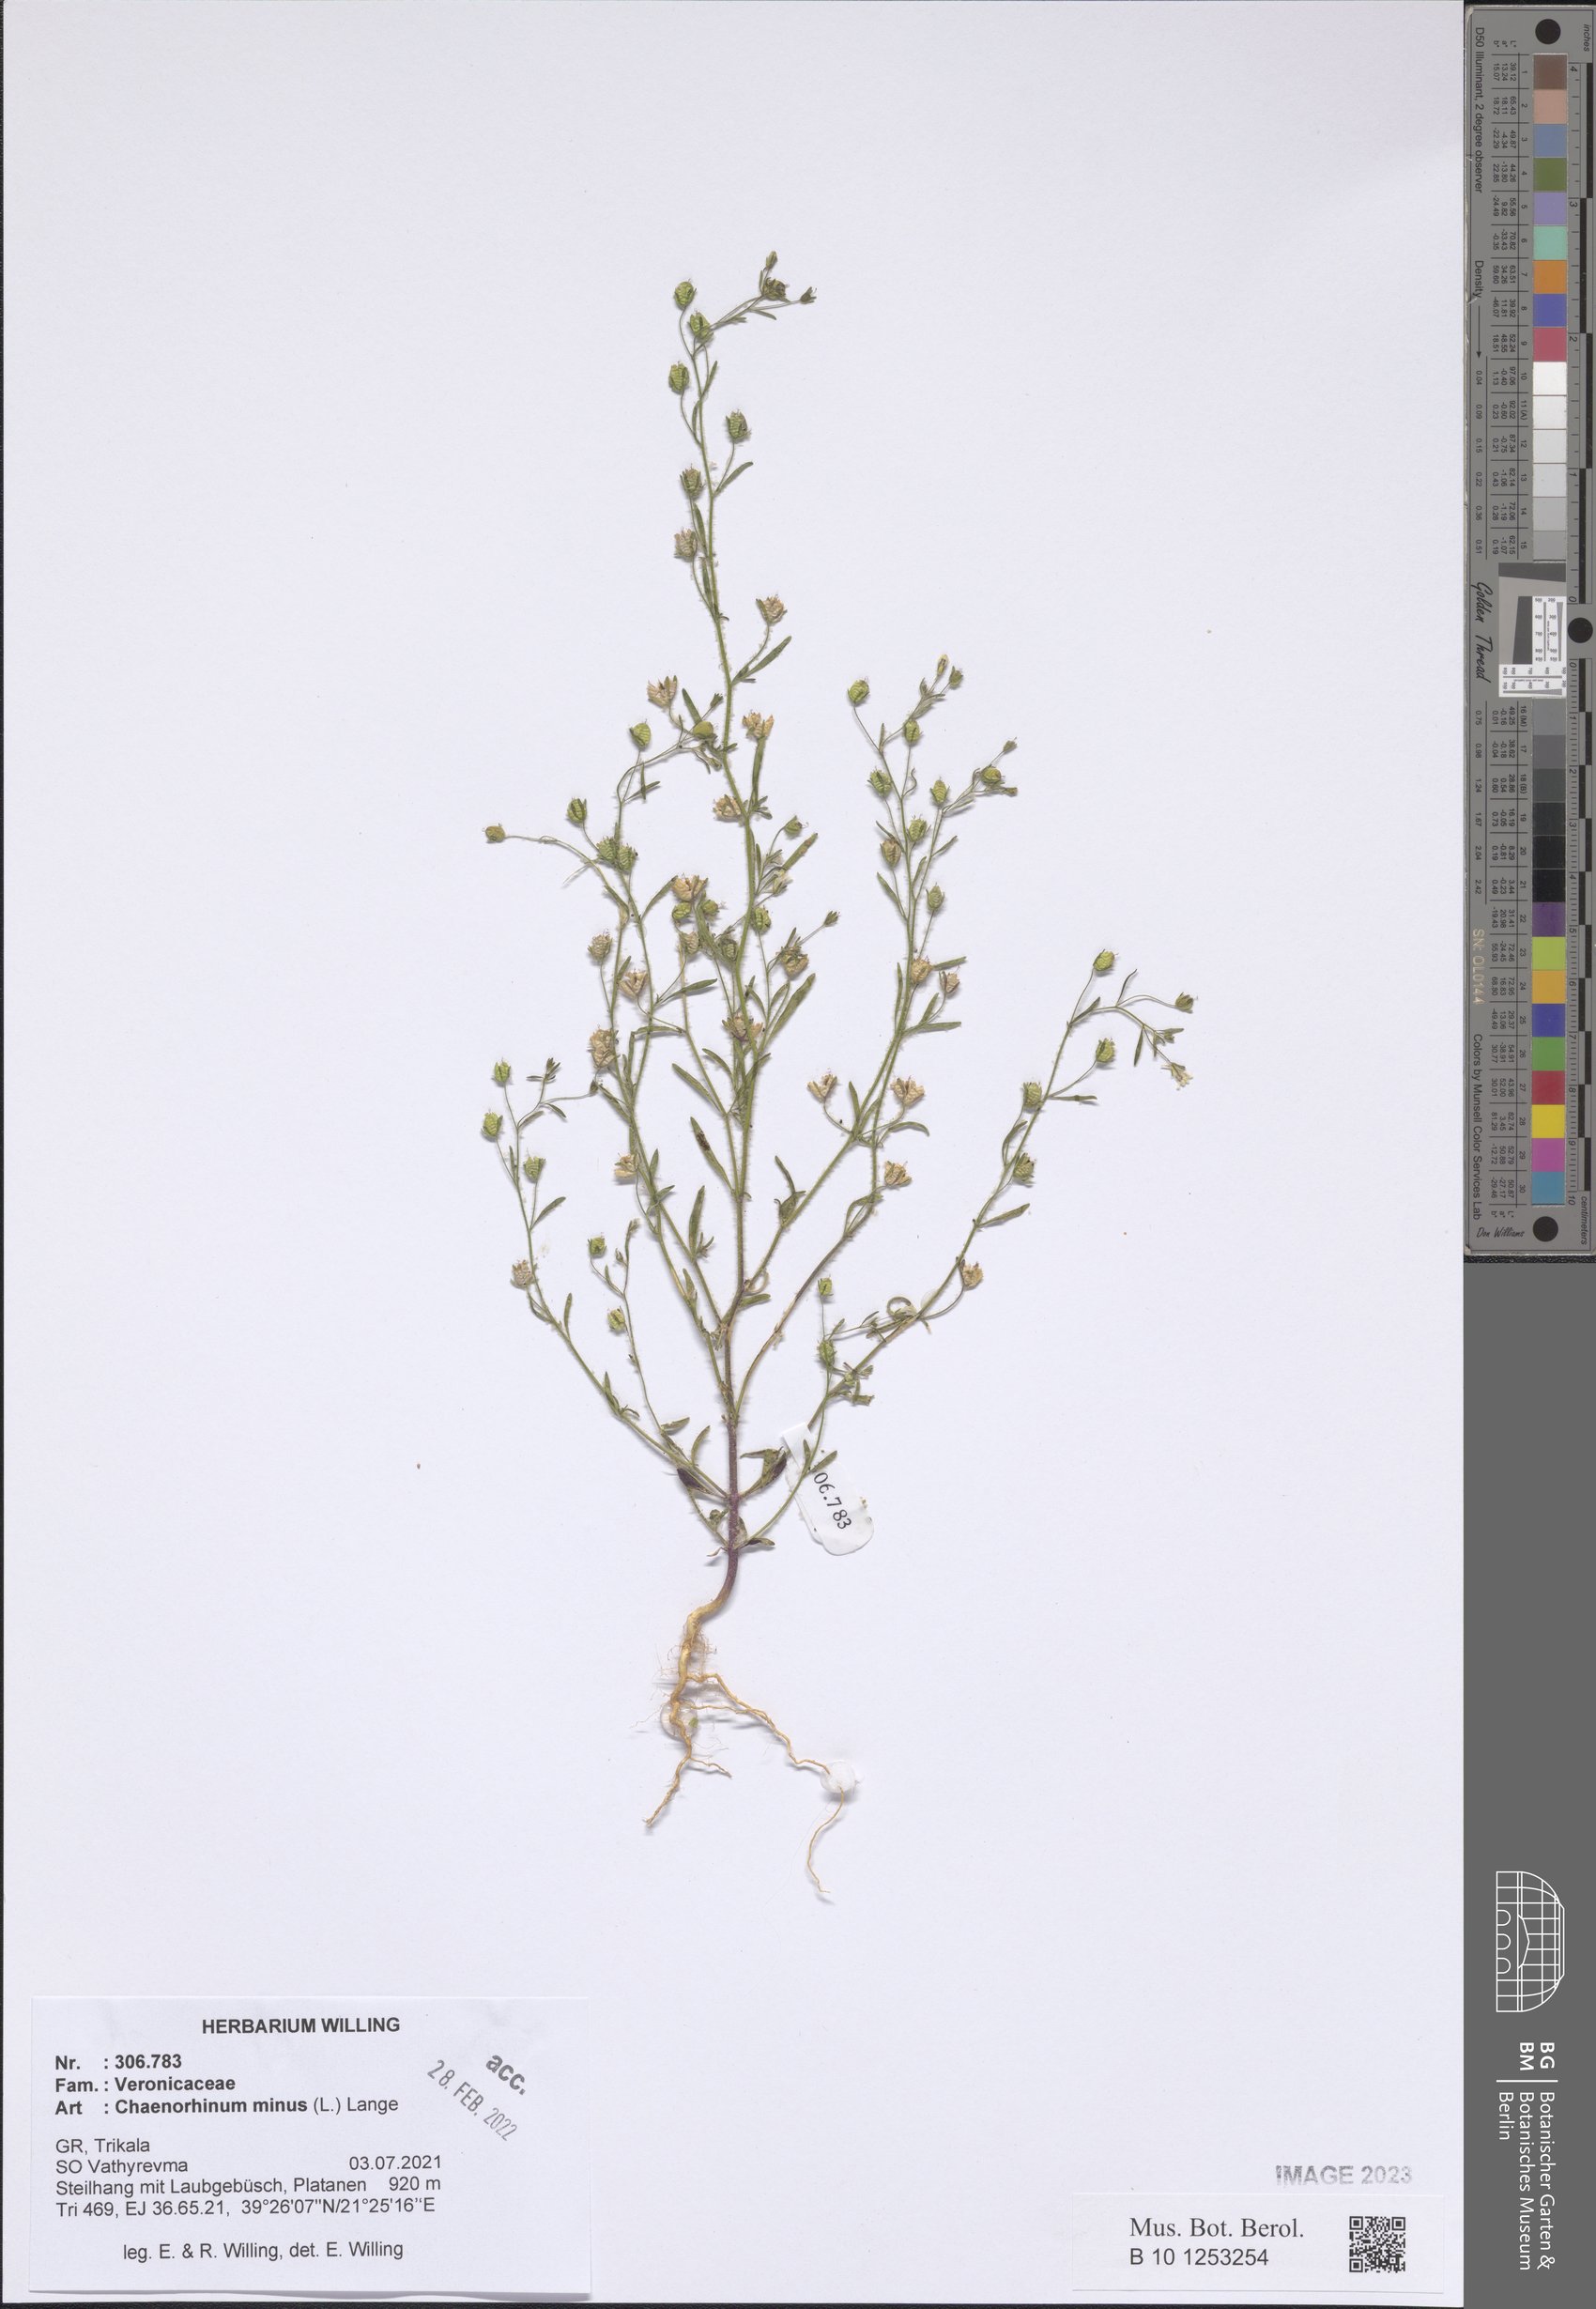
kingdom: Plantae
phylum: Tracheophyta
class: Magnoliopsida
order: Lamiales
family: Plantaginaceae
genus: Chaenorhinum
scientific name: Chaenorhinum minus
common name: Dwarf snapdragon
